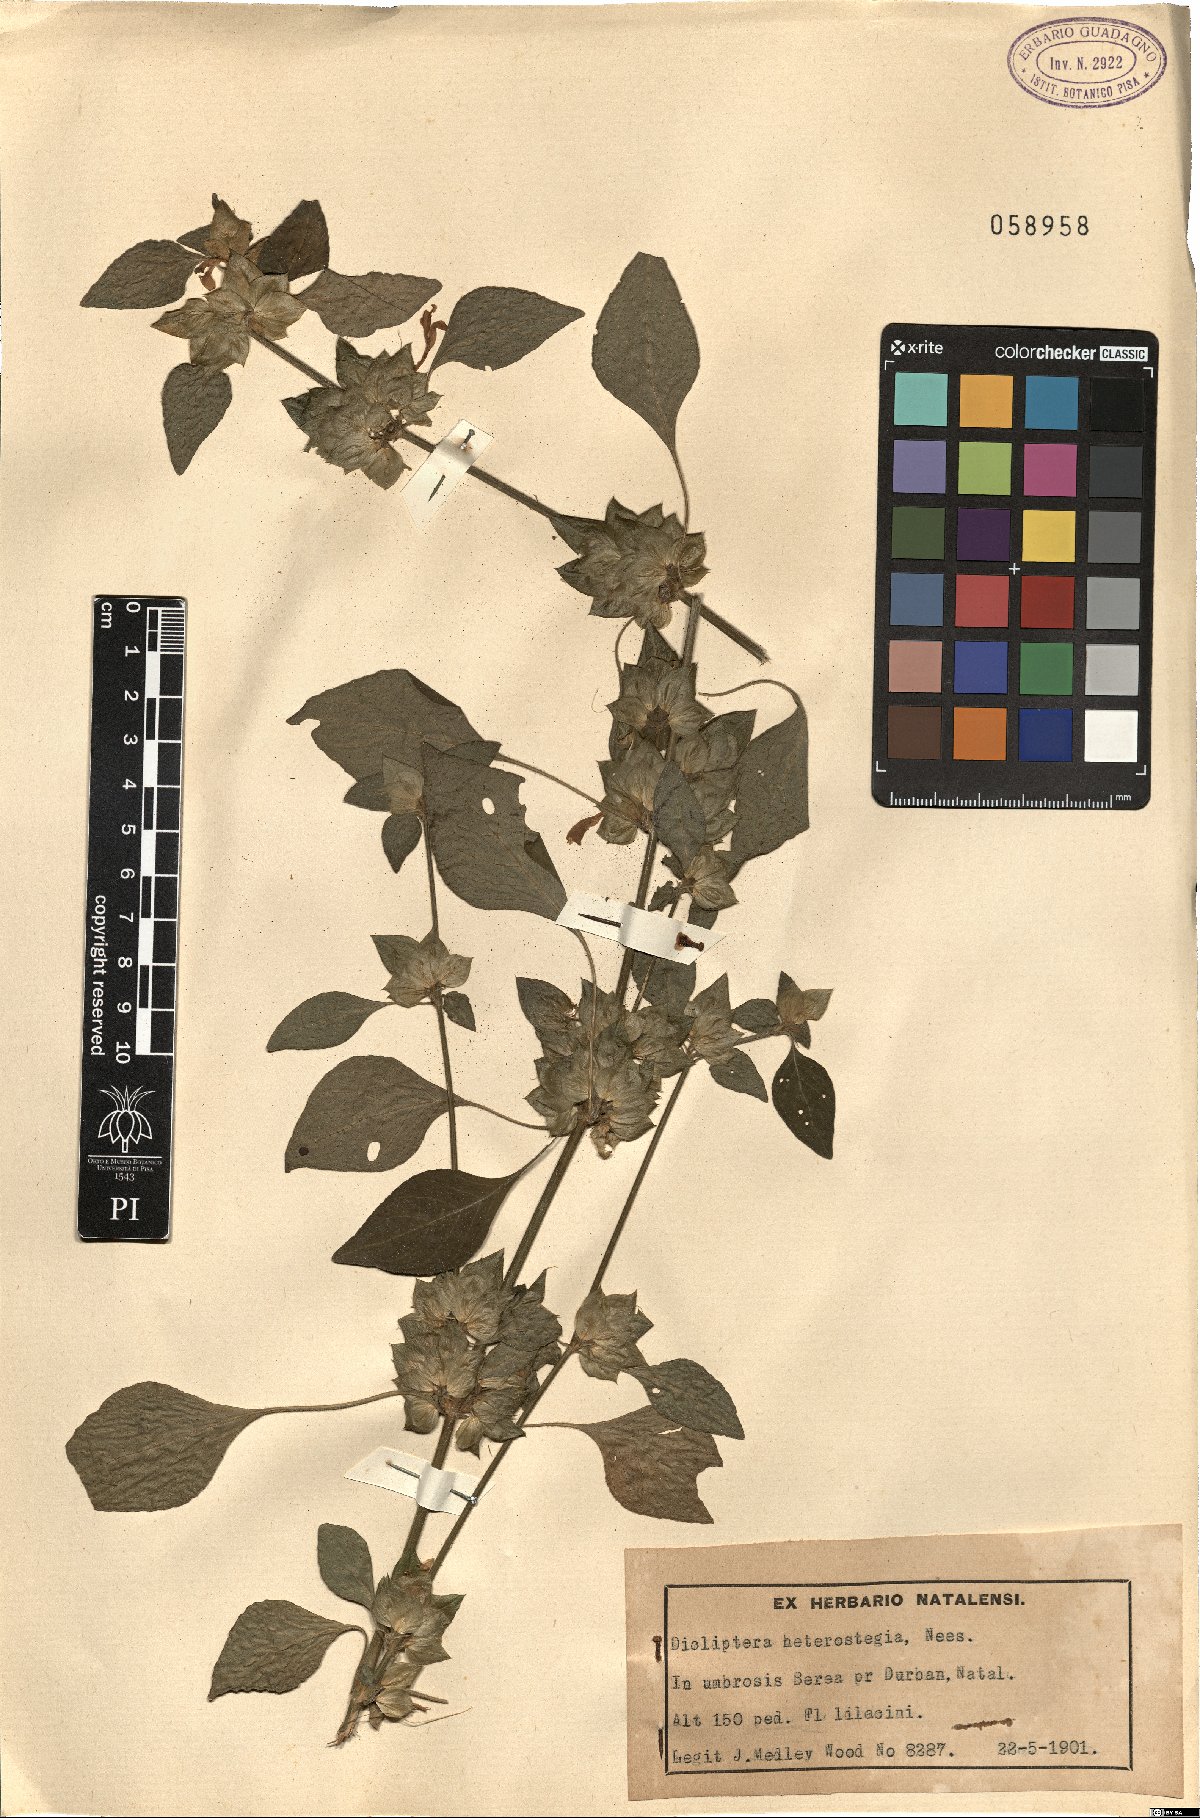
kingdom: Plantae
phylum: Tracheophyta
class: Magnoliopsida
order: Lamiales
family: Acanthaceae
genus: Dicliptera
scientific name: Dicliptera heterostegia
